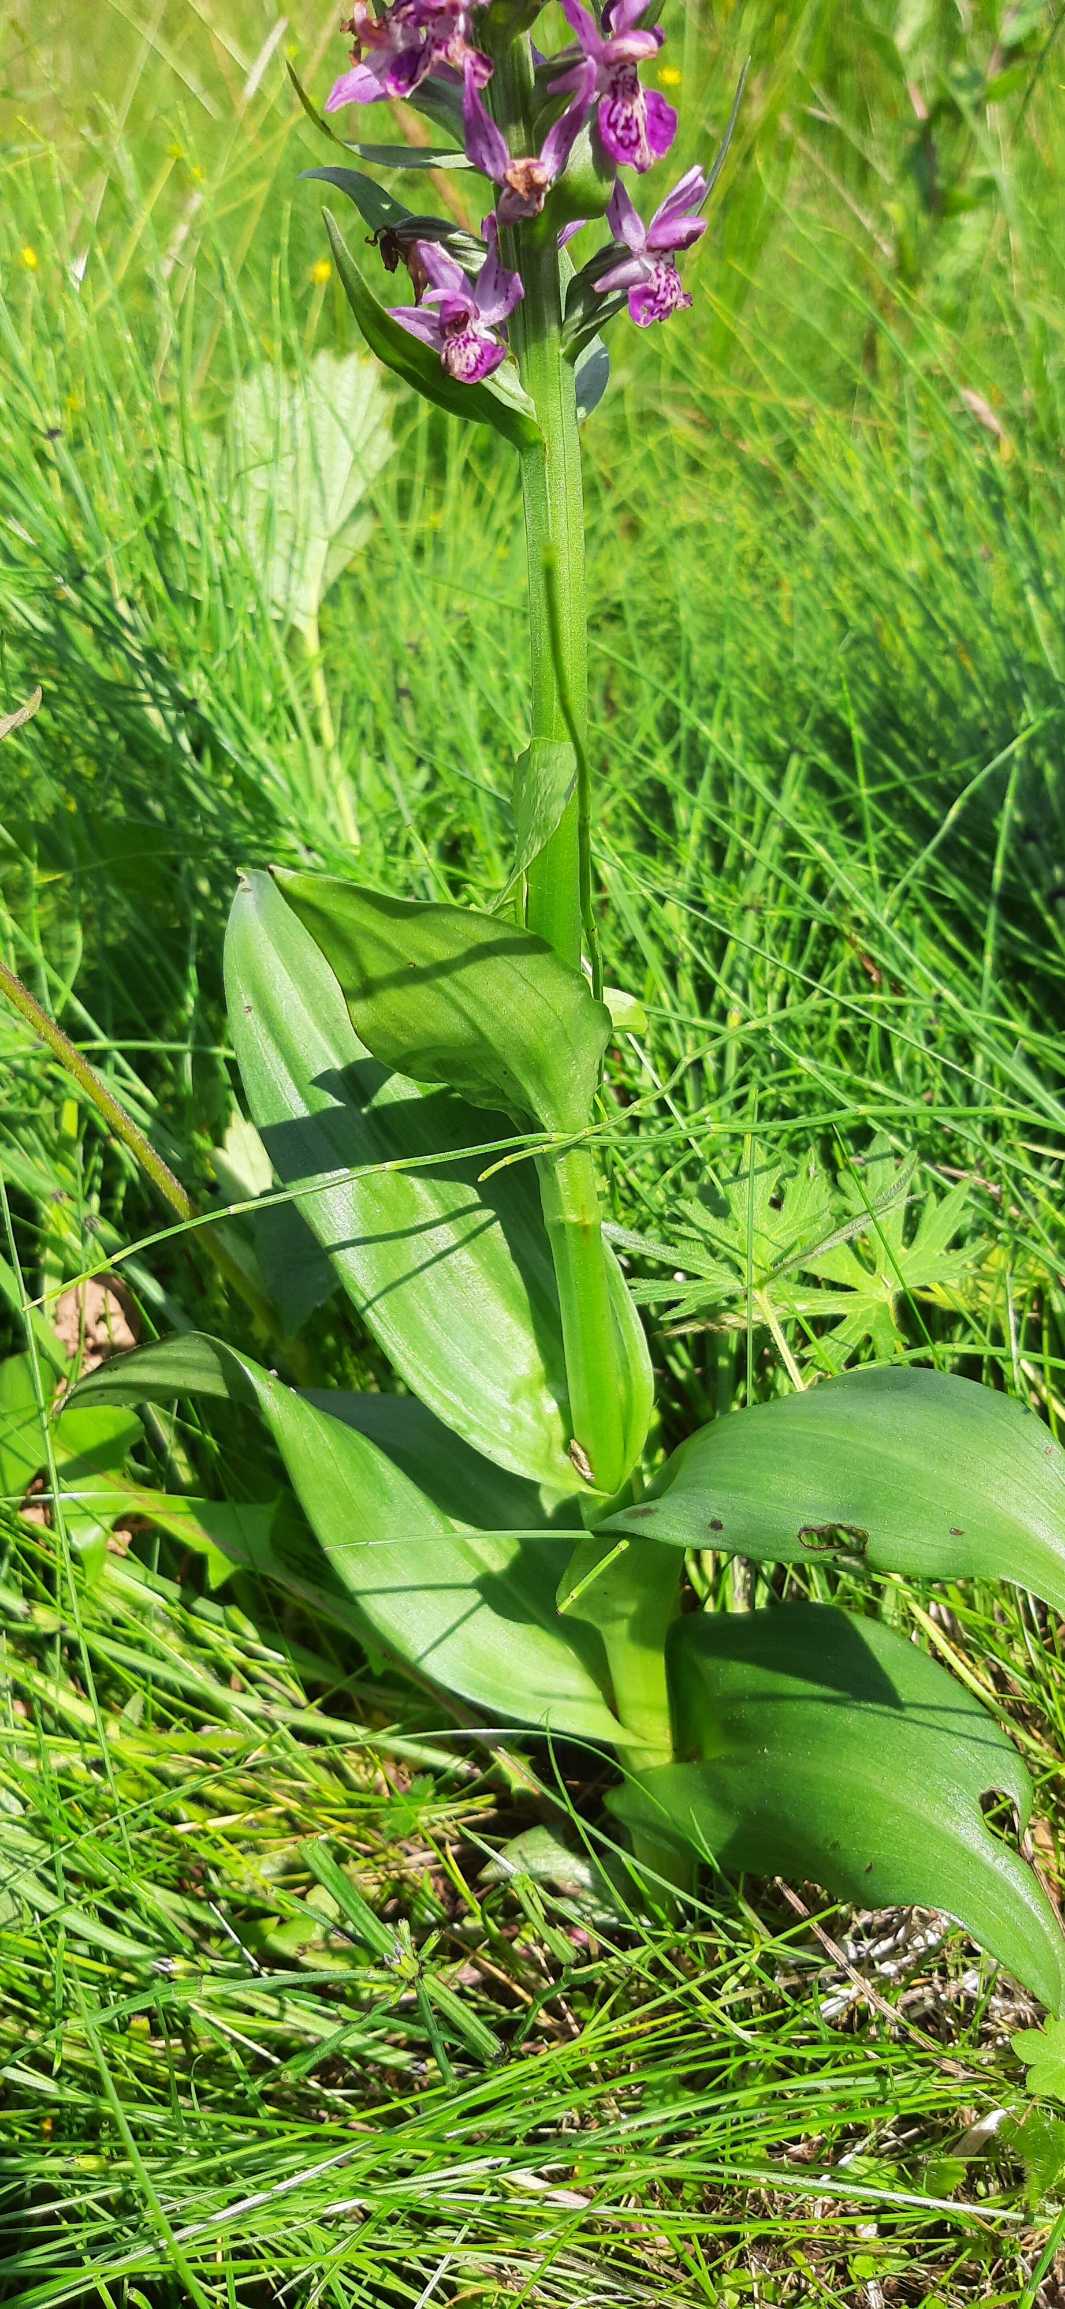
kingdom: Plantae
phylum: Tracheophyta
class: Liliopsida
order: Asparagales
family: Orchidaceae
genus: Dactylorhiza
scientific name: Dactylorhiza majalis
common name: Purpur-gøgeurt
